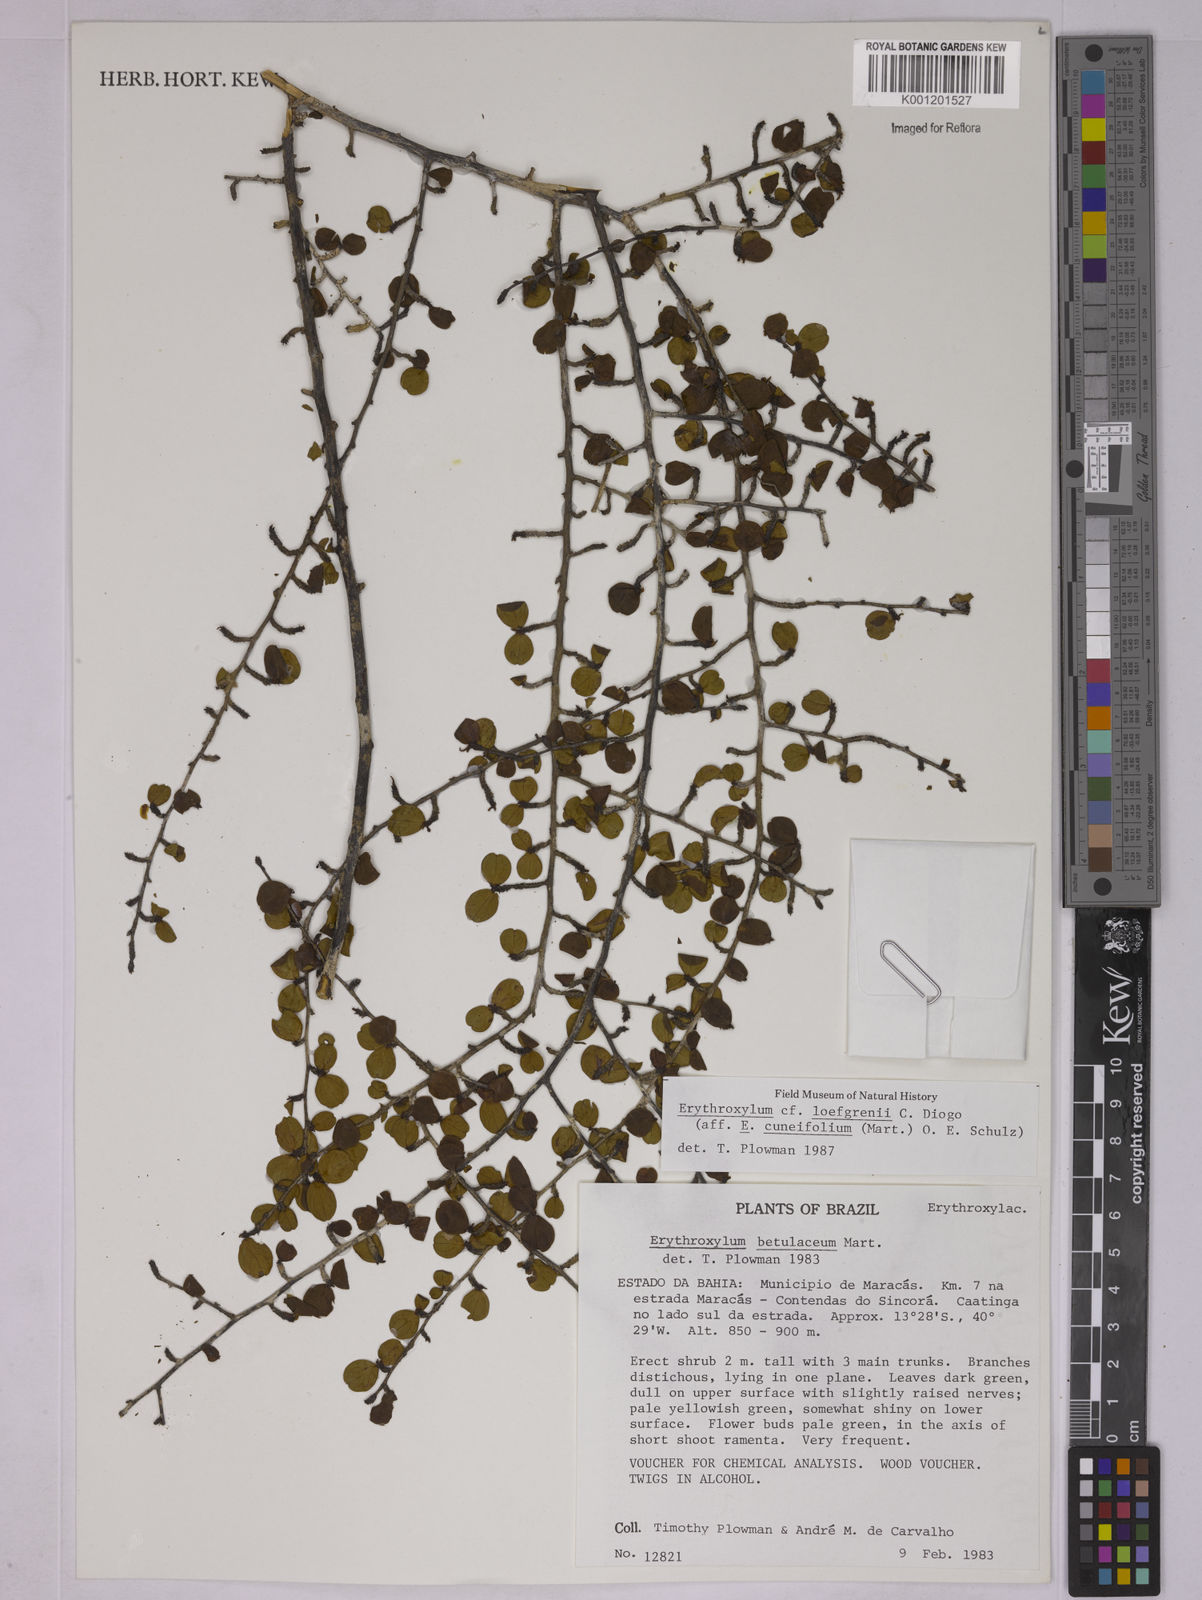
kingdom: Plantae
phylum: Tracheophyta
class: Magnoliopsida
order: Malpighiales
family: Erythroxylaceae
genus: Erythroxylum
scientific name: Erythroxylum loefgrenii
